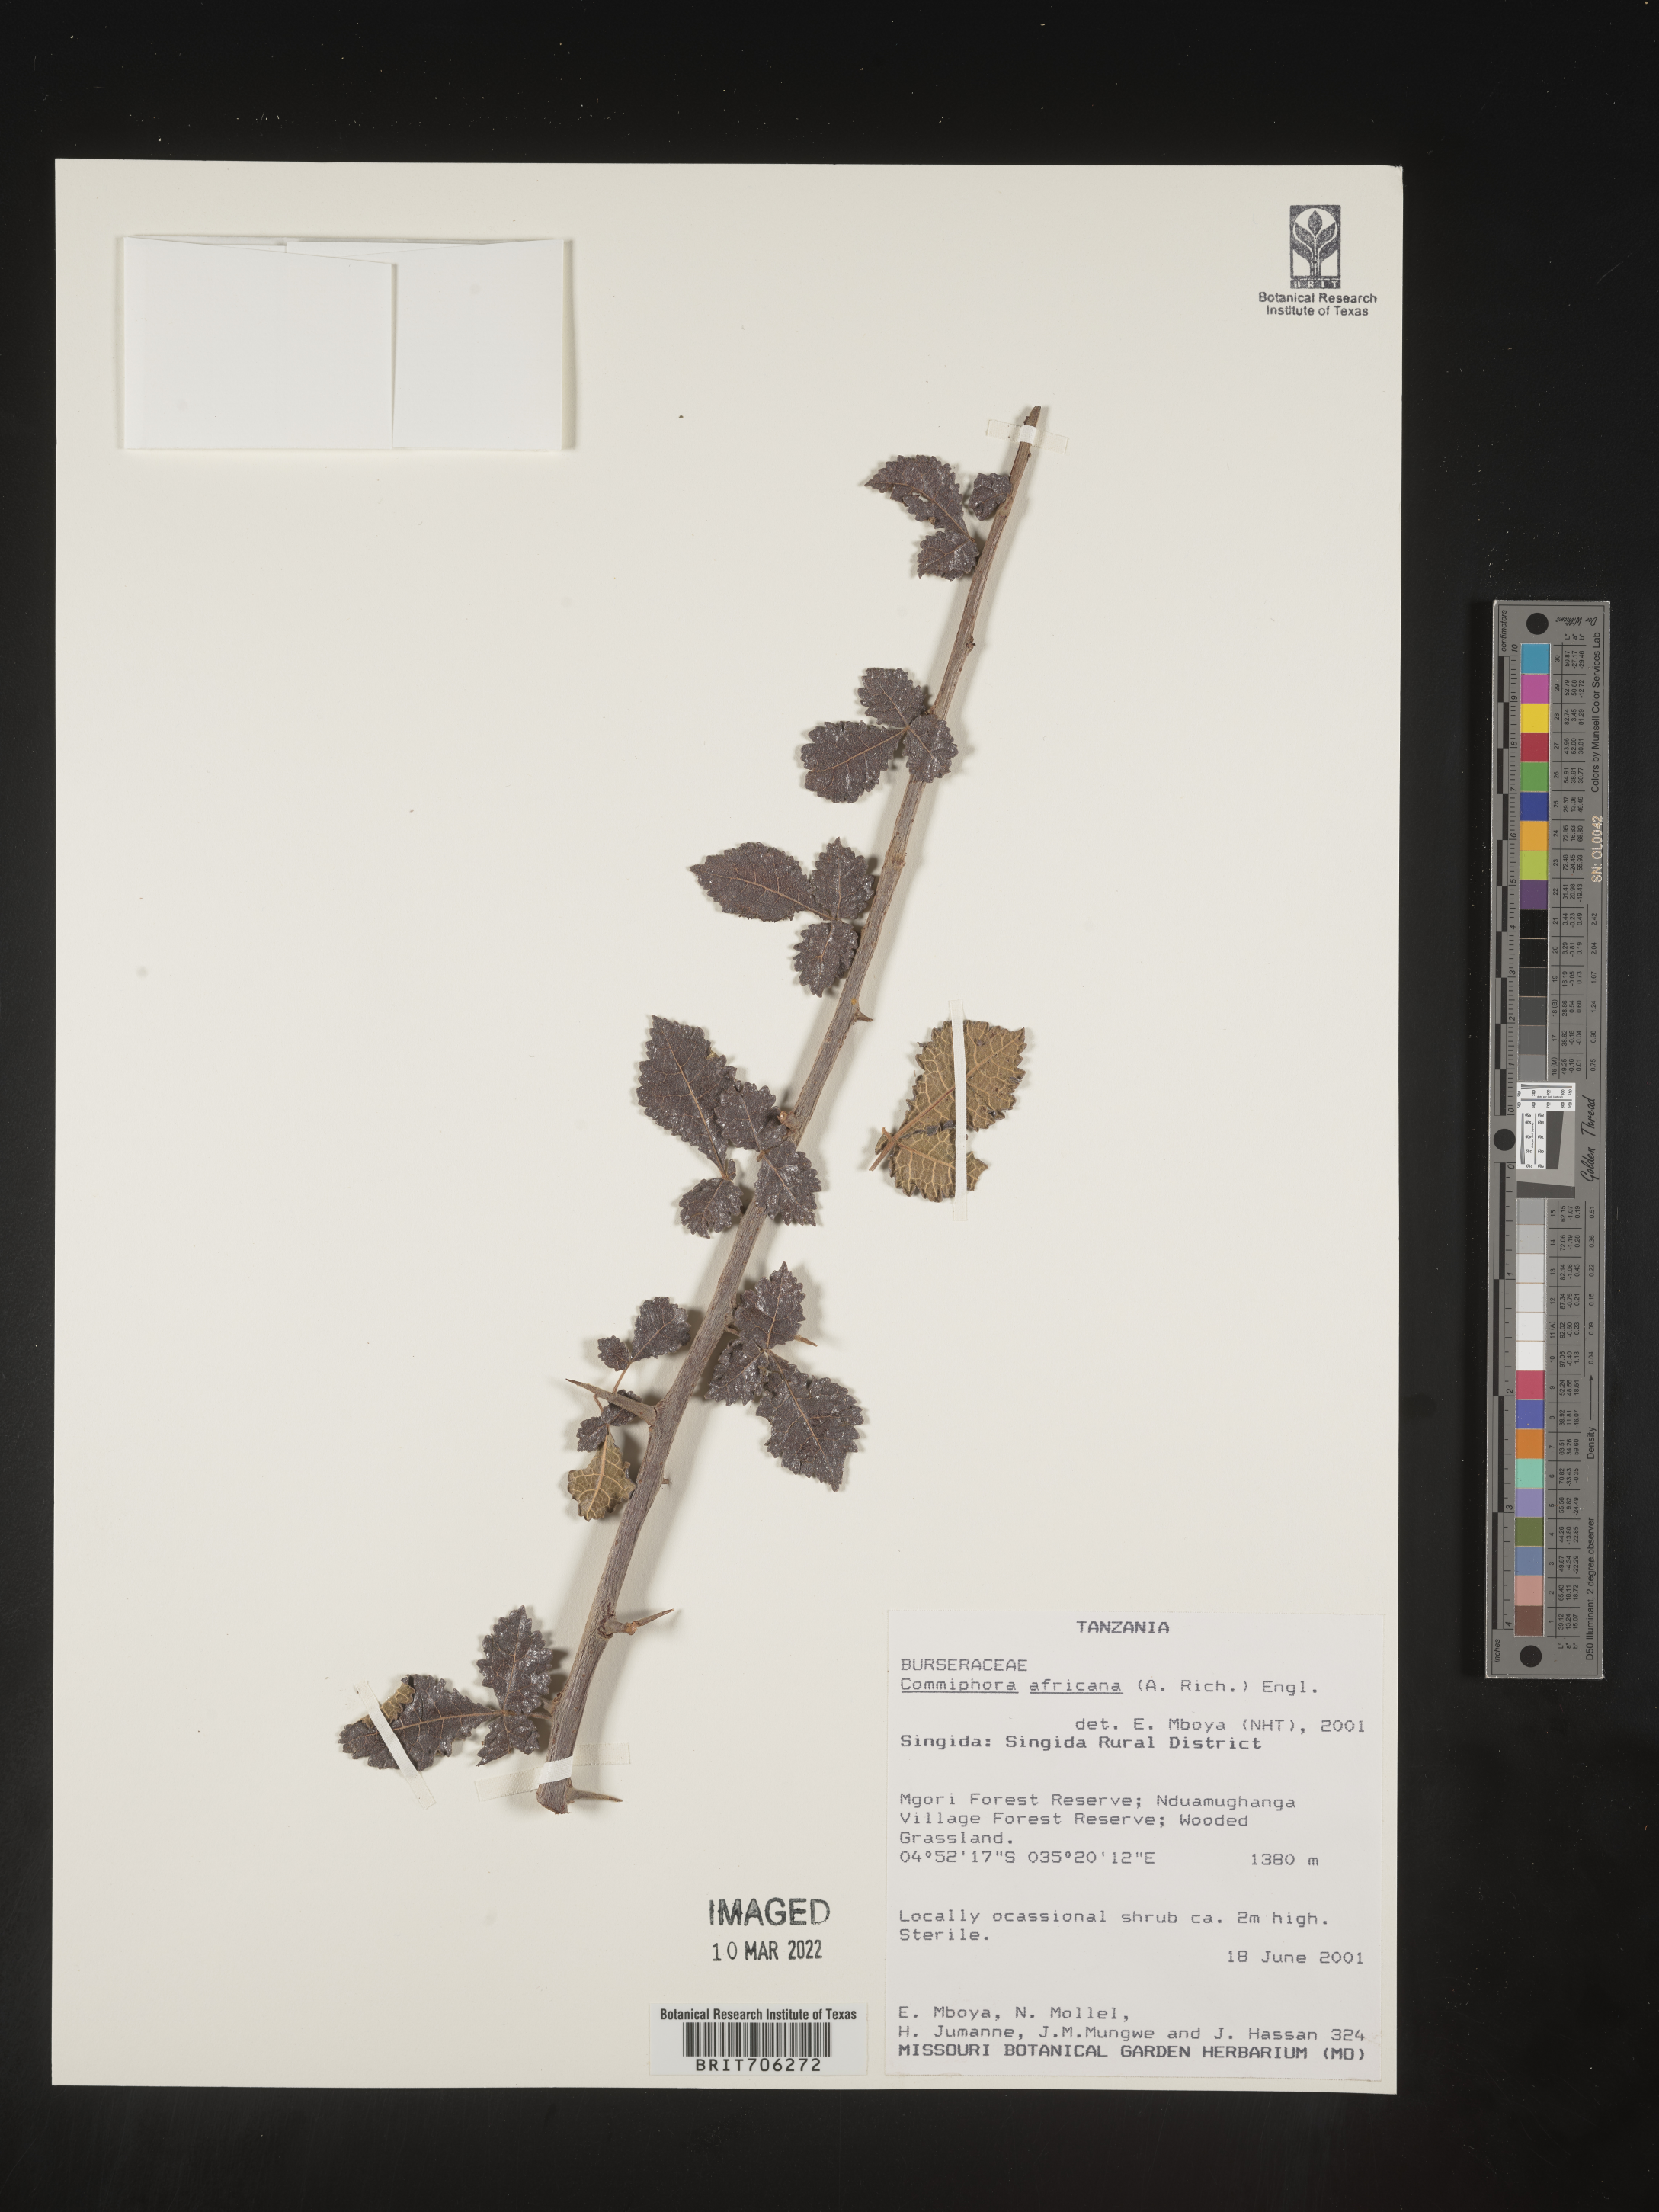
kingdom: Plantae
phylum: Tracheophyta
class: Magnoliopsida
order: Sapindales
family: Burseraceae
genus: Commiphora
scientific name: Commiphora
